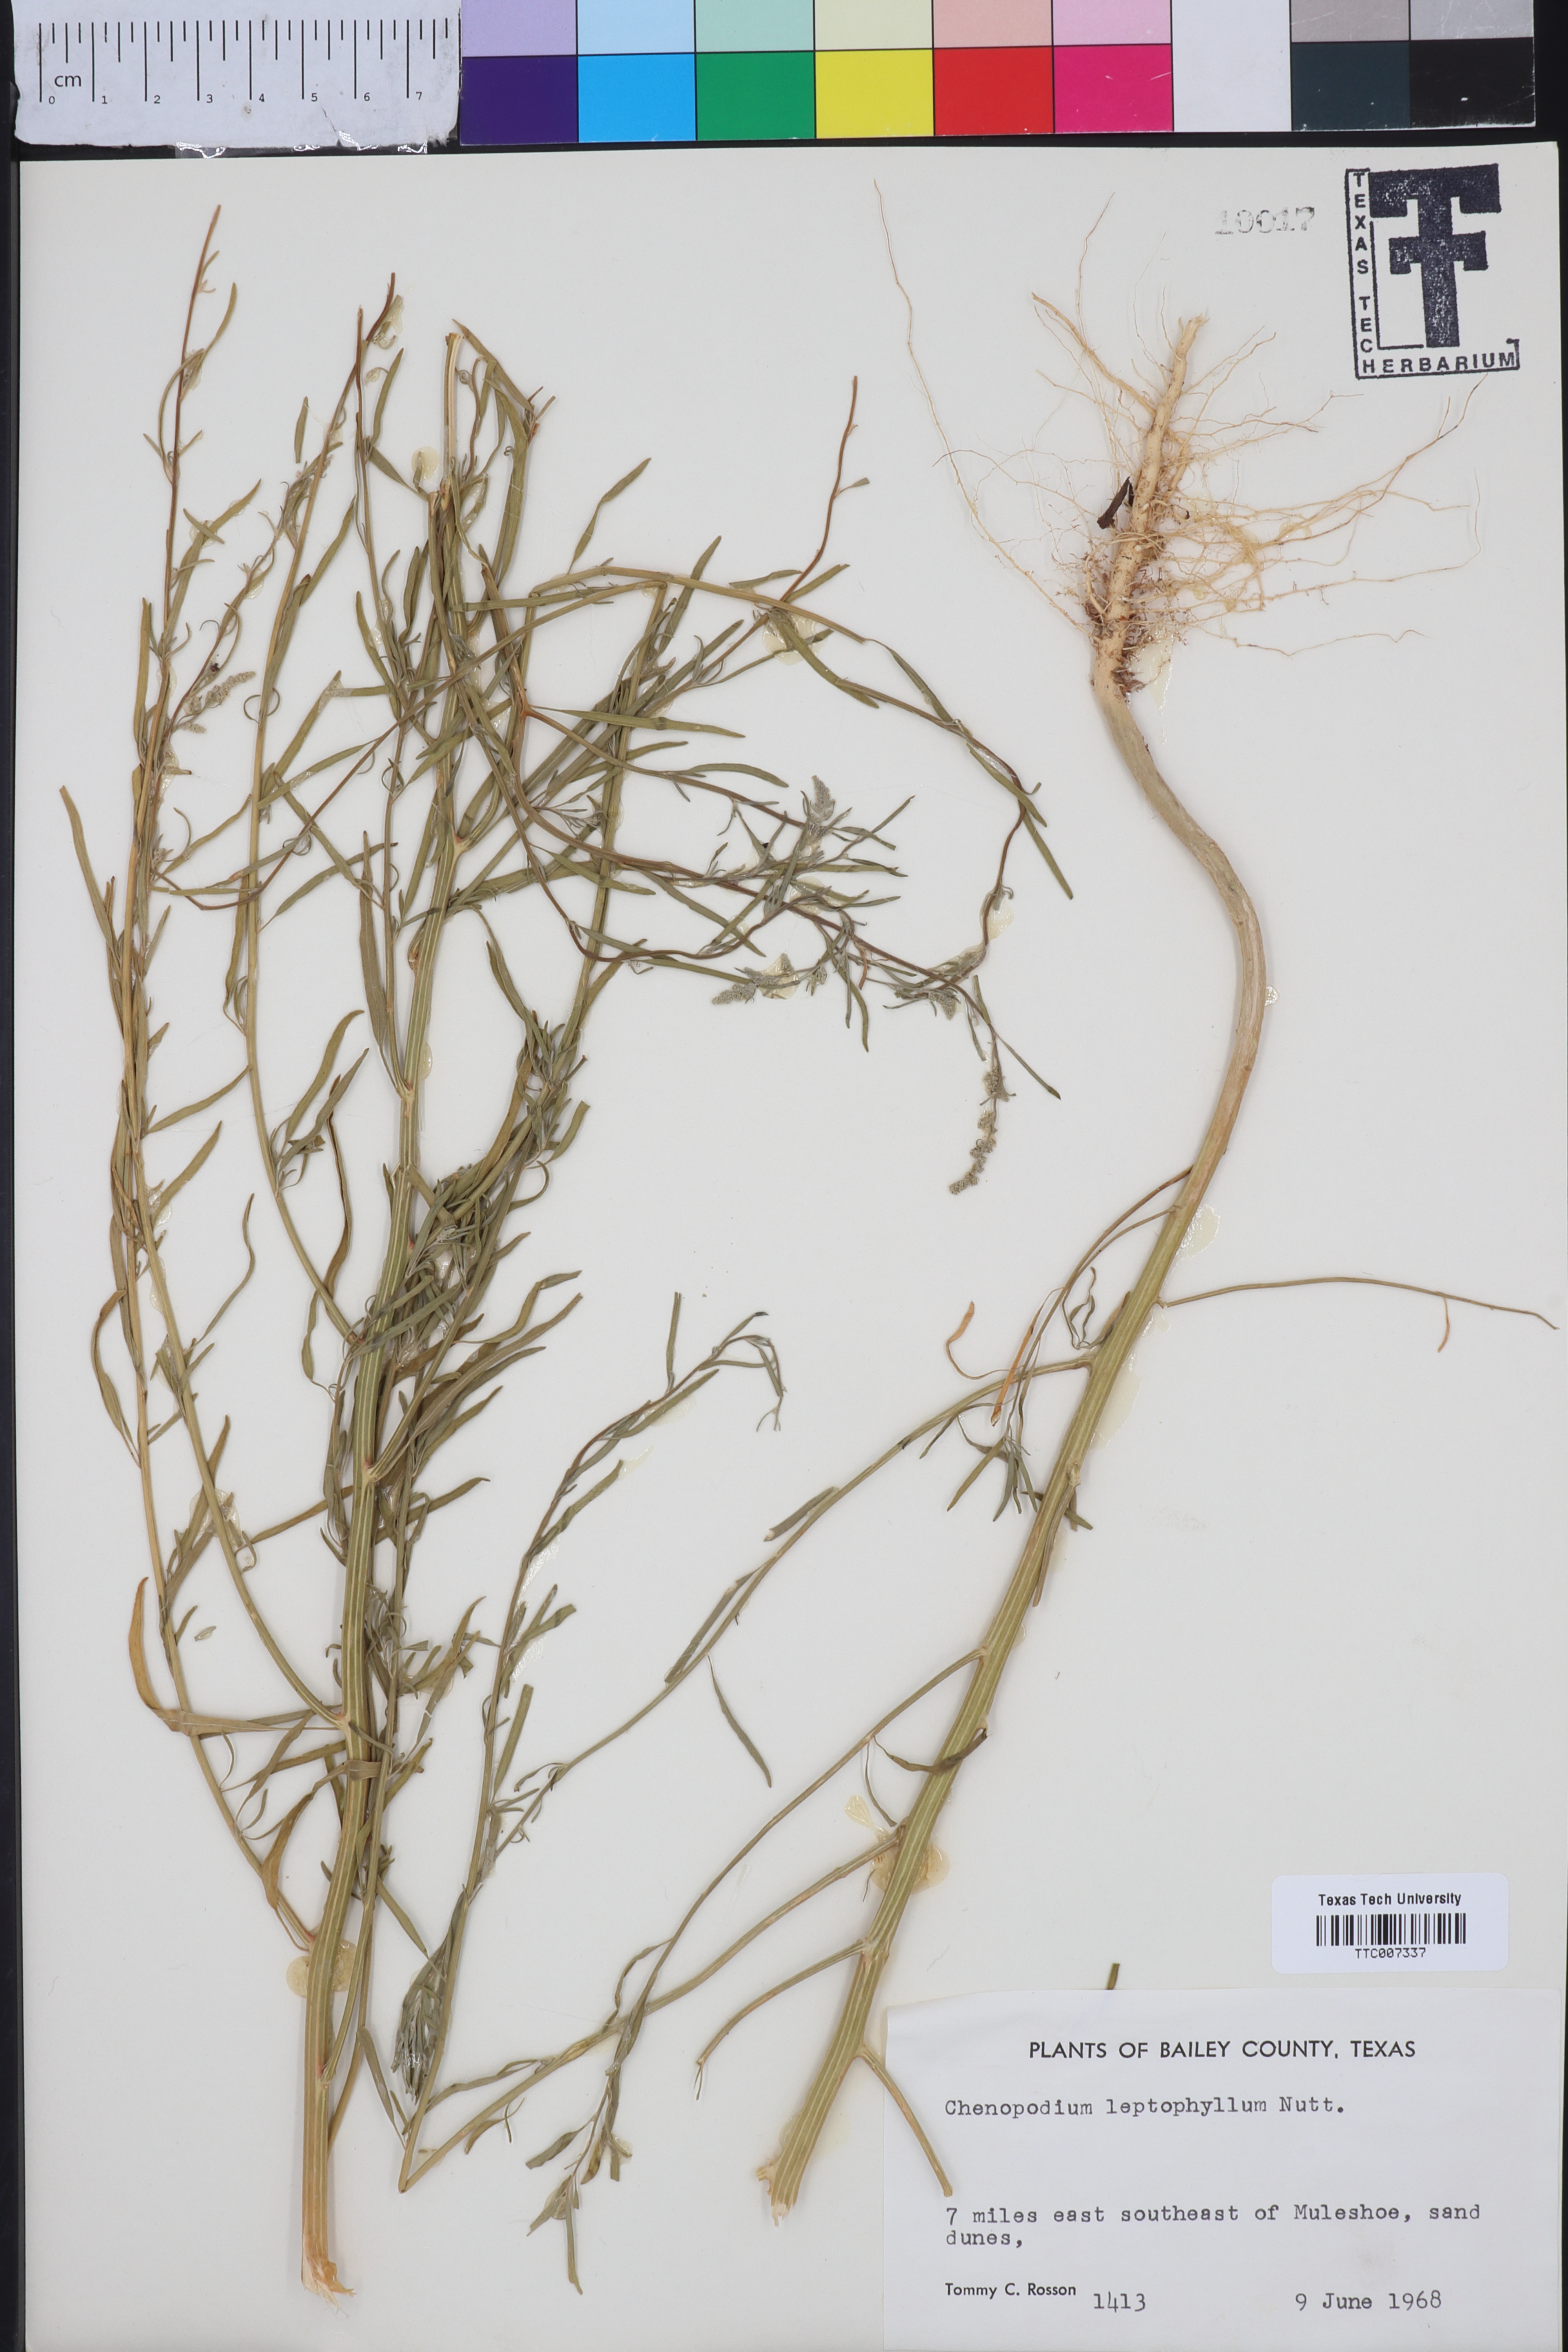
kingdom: Plantae
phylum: Tracheophyta
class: Magnoliopsida
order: Caryophyllales
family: Amaranthaceae
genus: Chenopodium
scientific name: Chenopodium leptophyllum
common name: Narrow-leaf goosefoot
